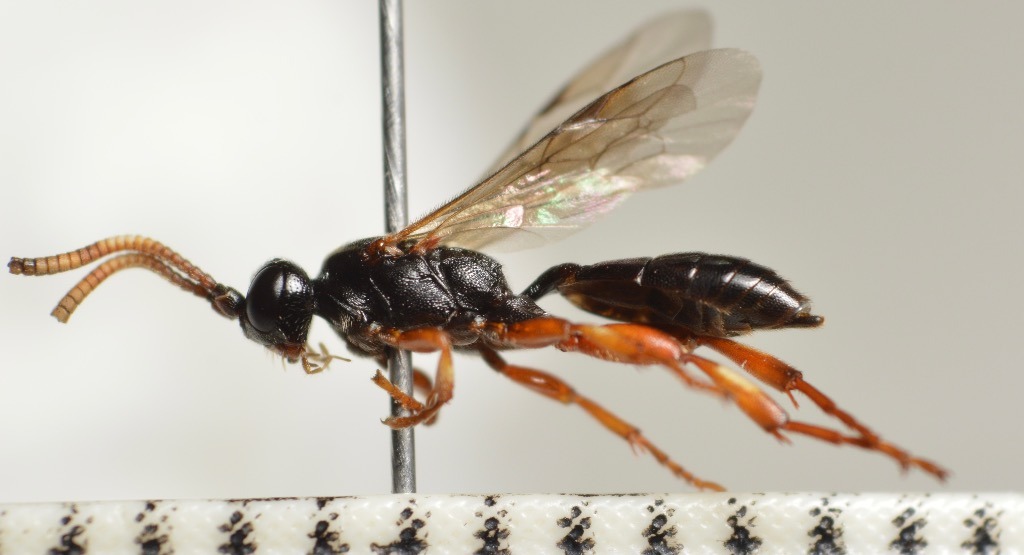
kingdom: Animalia
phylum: Arthropoda
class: Insecta
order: Hymenoptera
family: Ichneumonidae
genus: Cratichneumon
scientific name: Cratichneumon culex
